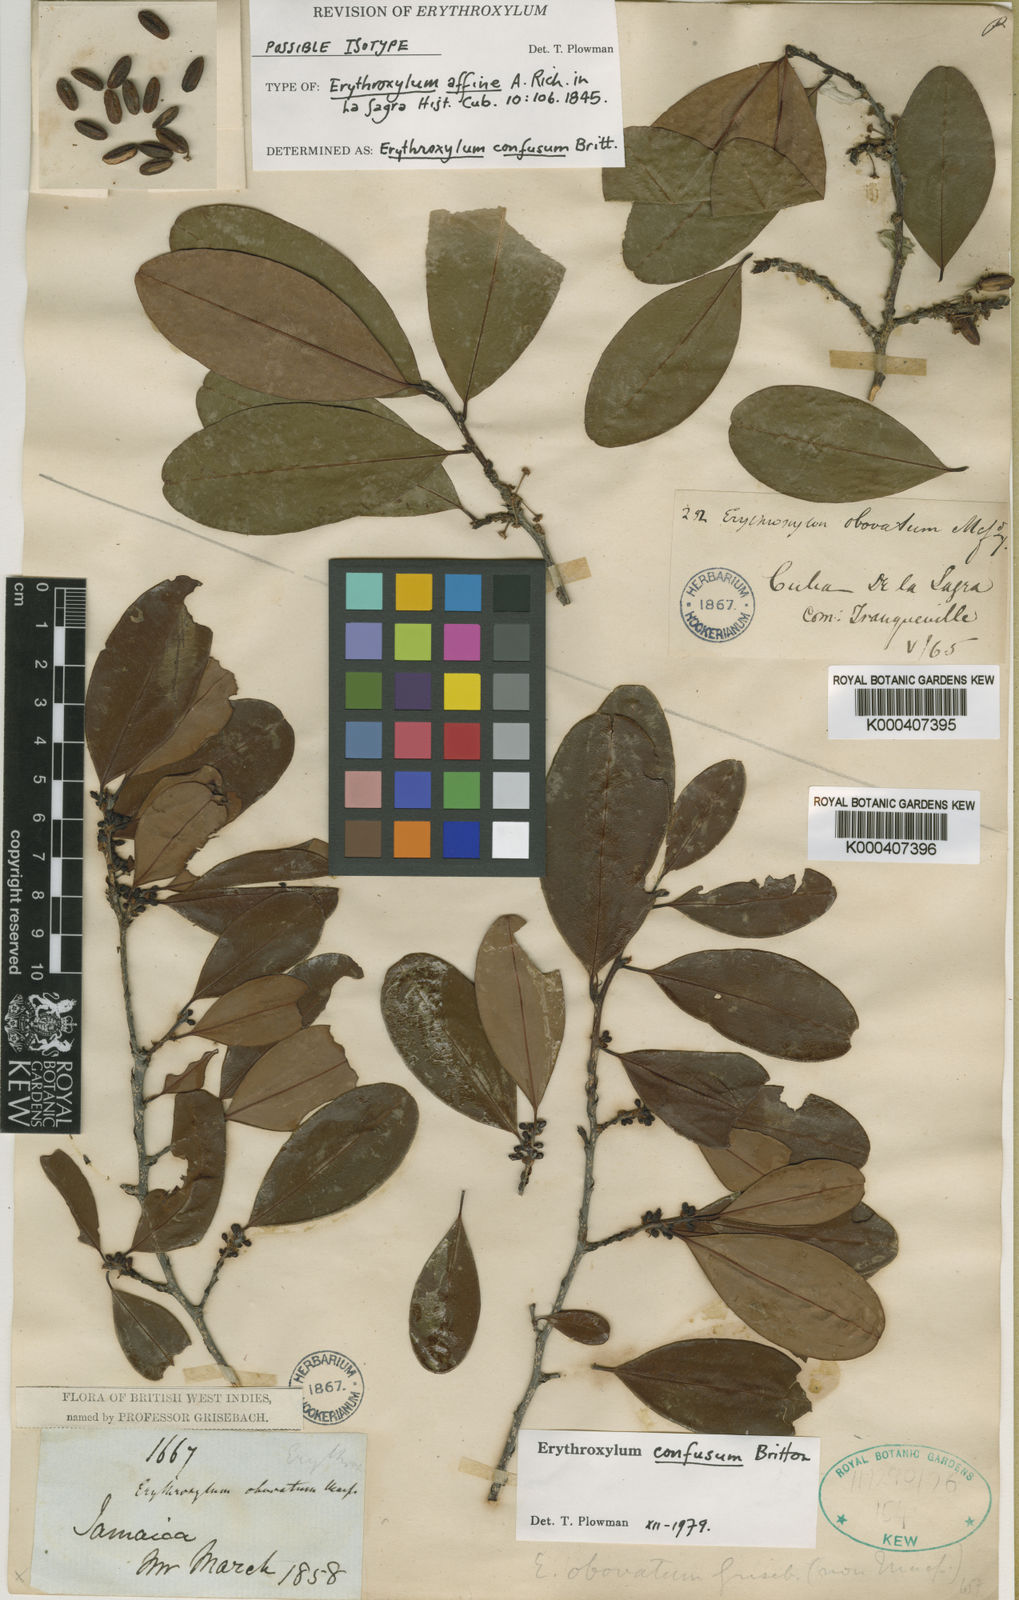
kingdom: Plantae
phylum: Tracheophyta
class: Magnoliopsida
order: Malpighiales
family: Erythroxylaceae
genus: Erythroxylum
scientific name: Erythroxylum
